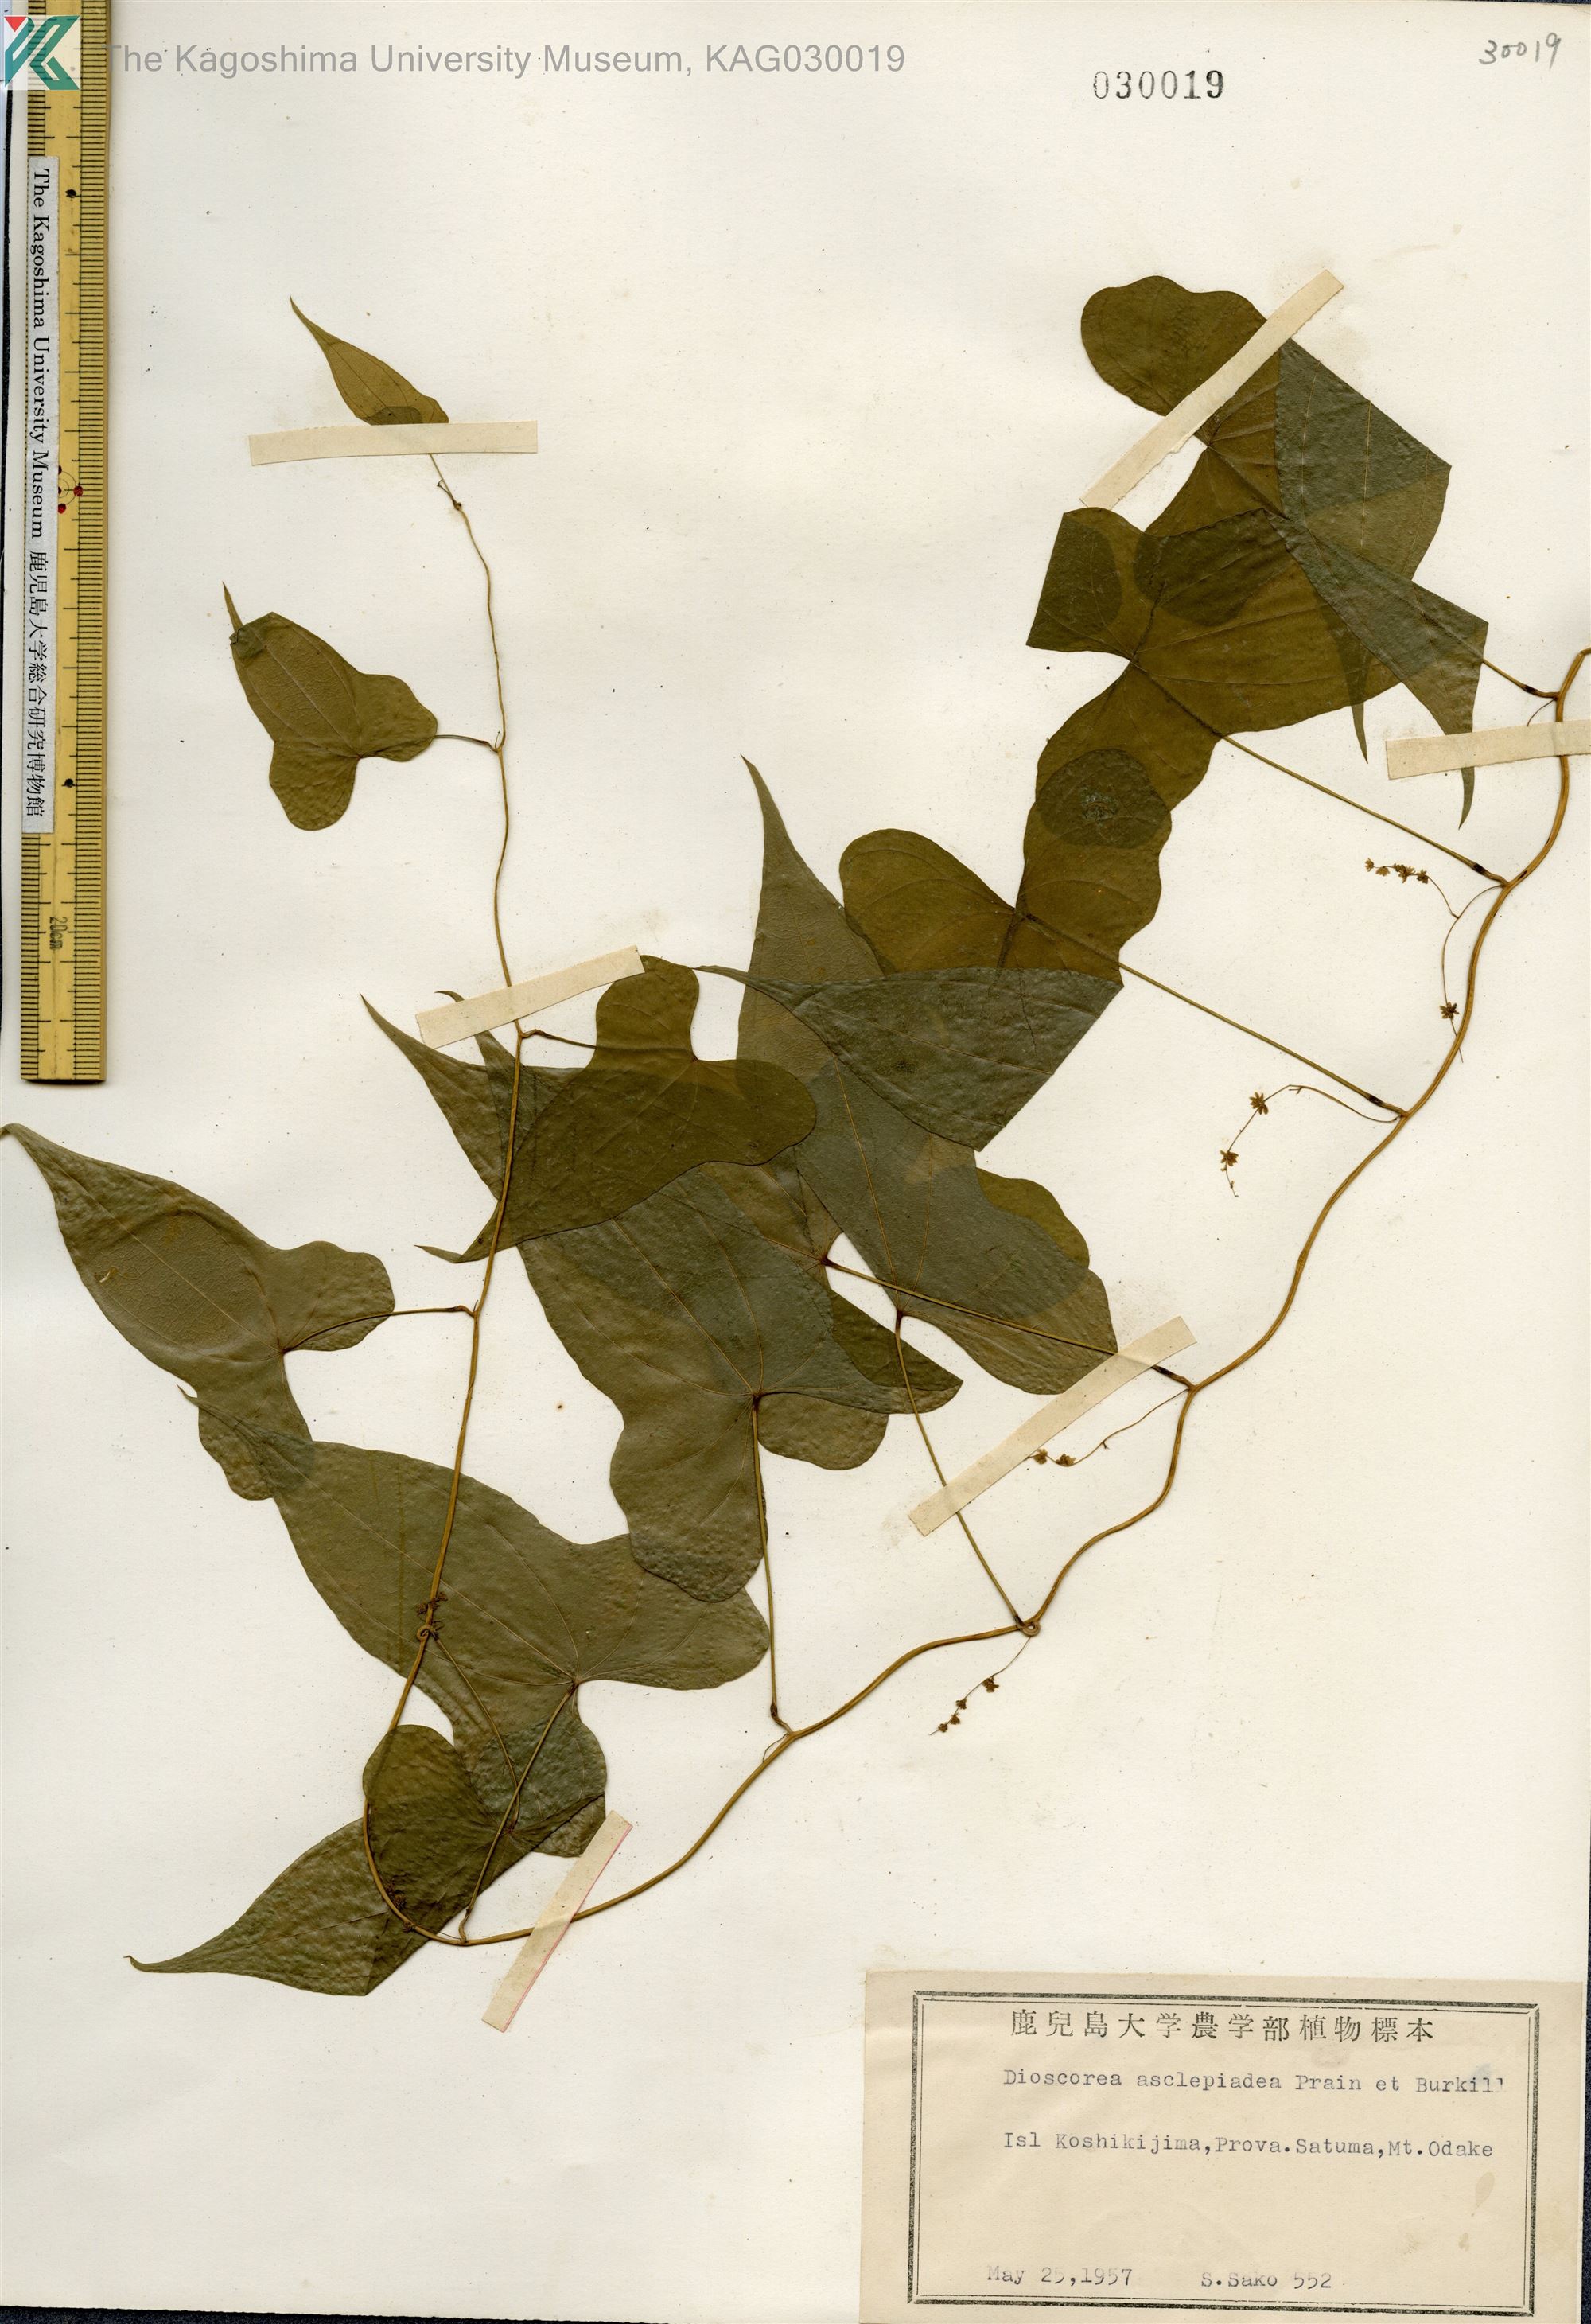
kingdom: Plantae
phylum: Tracheophyta
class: Liliopsida
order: Dioscoreales
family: Dioscoreaceae
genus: Dioscorea
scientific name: Dioscorea asclepiadea
